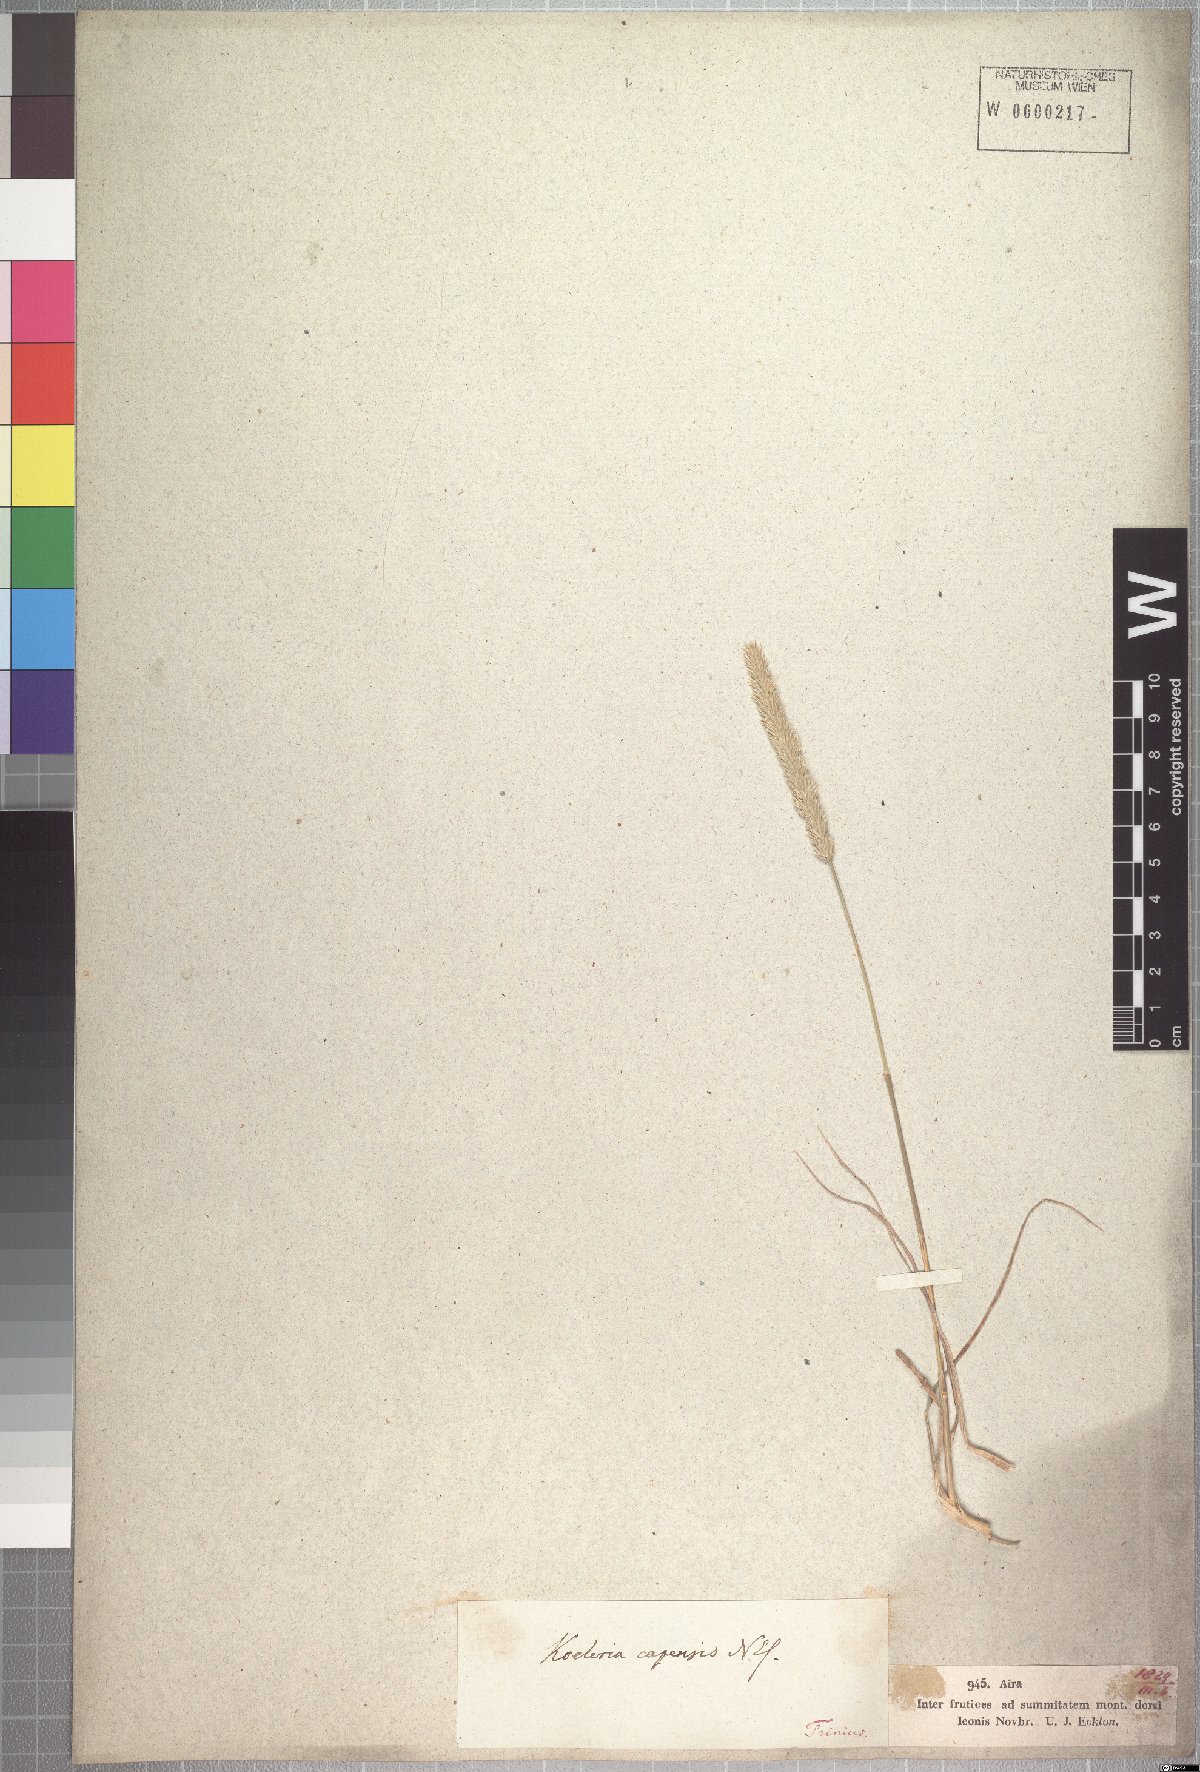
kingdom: Plantae
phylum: Tracheophyta
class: Liliopsida
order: Poales
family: Poaceae
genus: Koeleria
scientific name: Koeleria capensis
